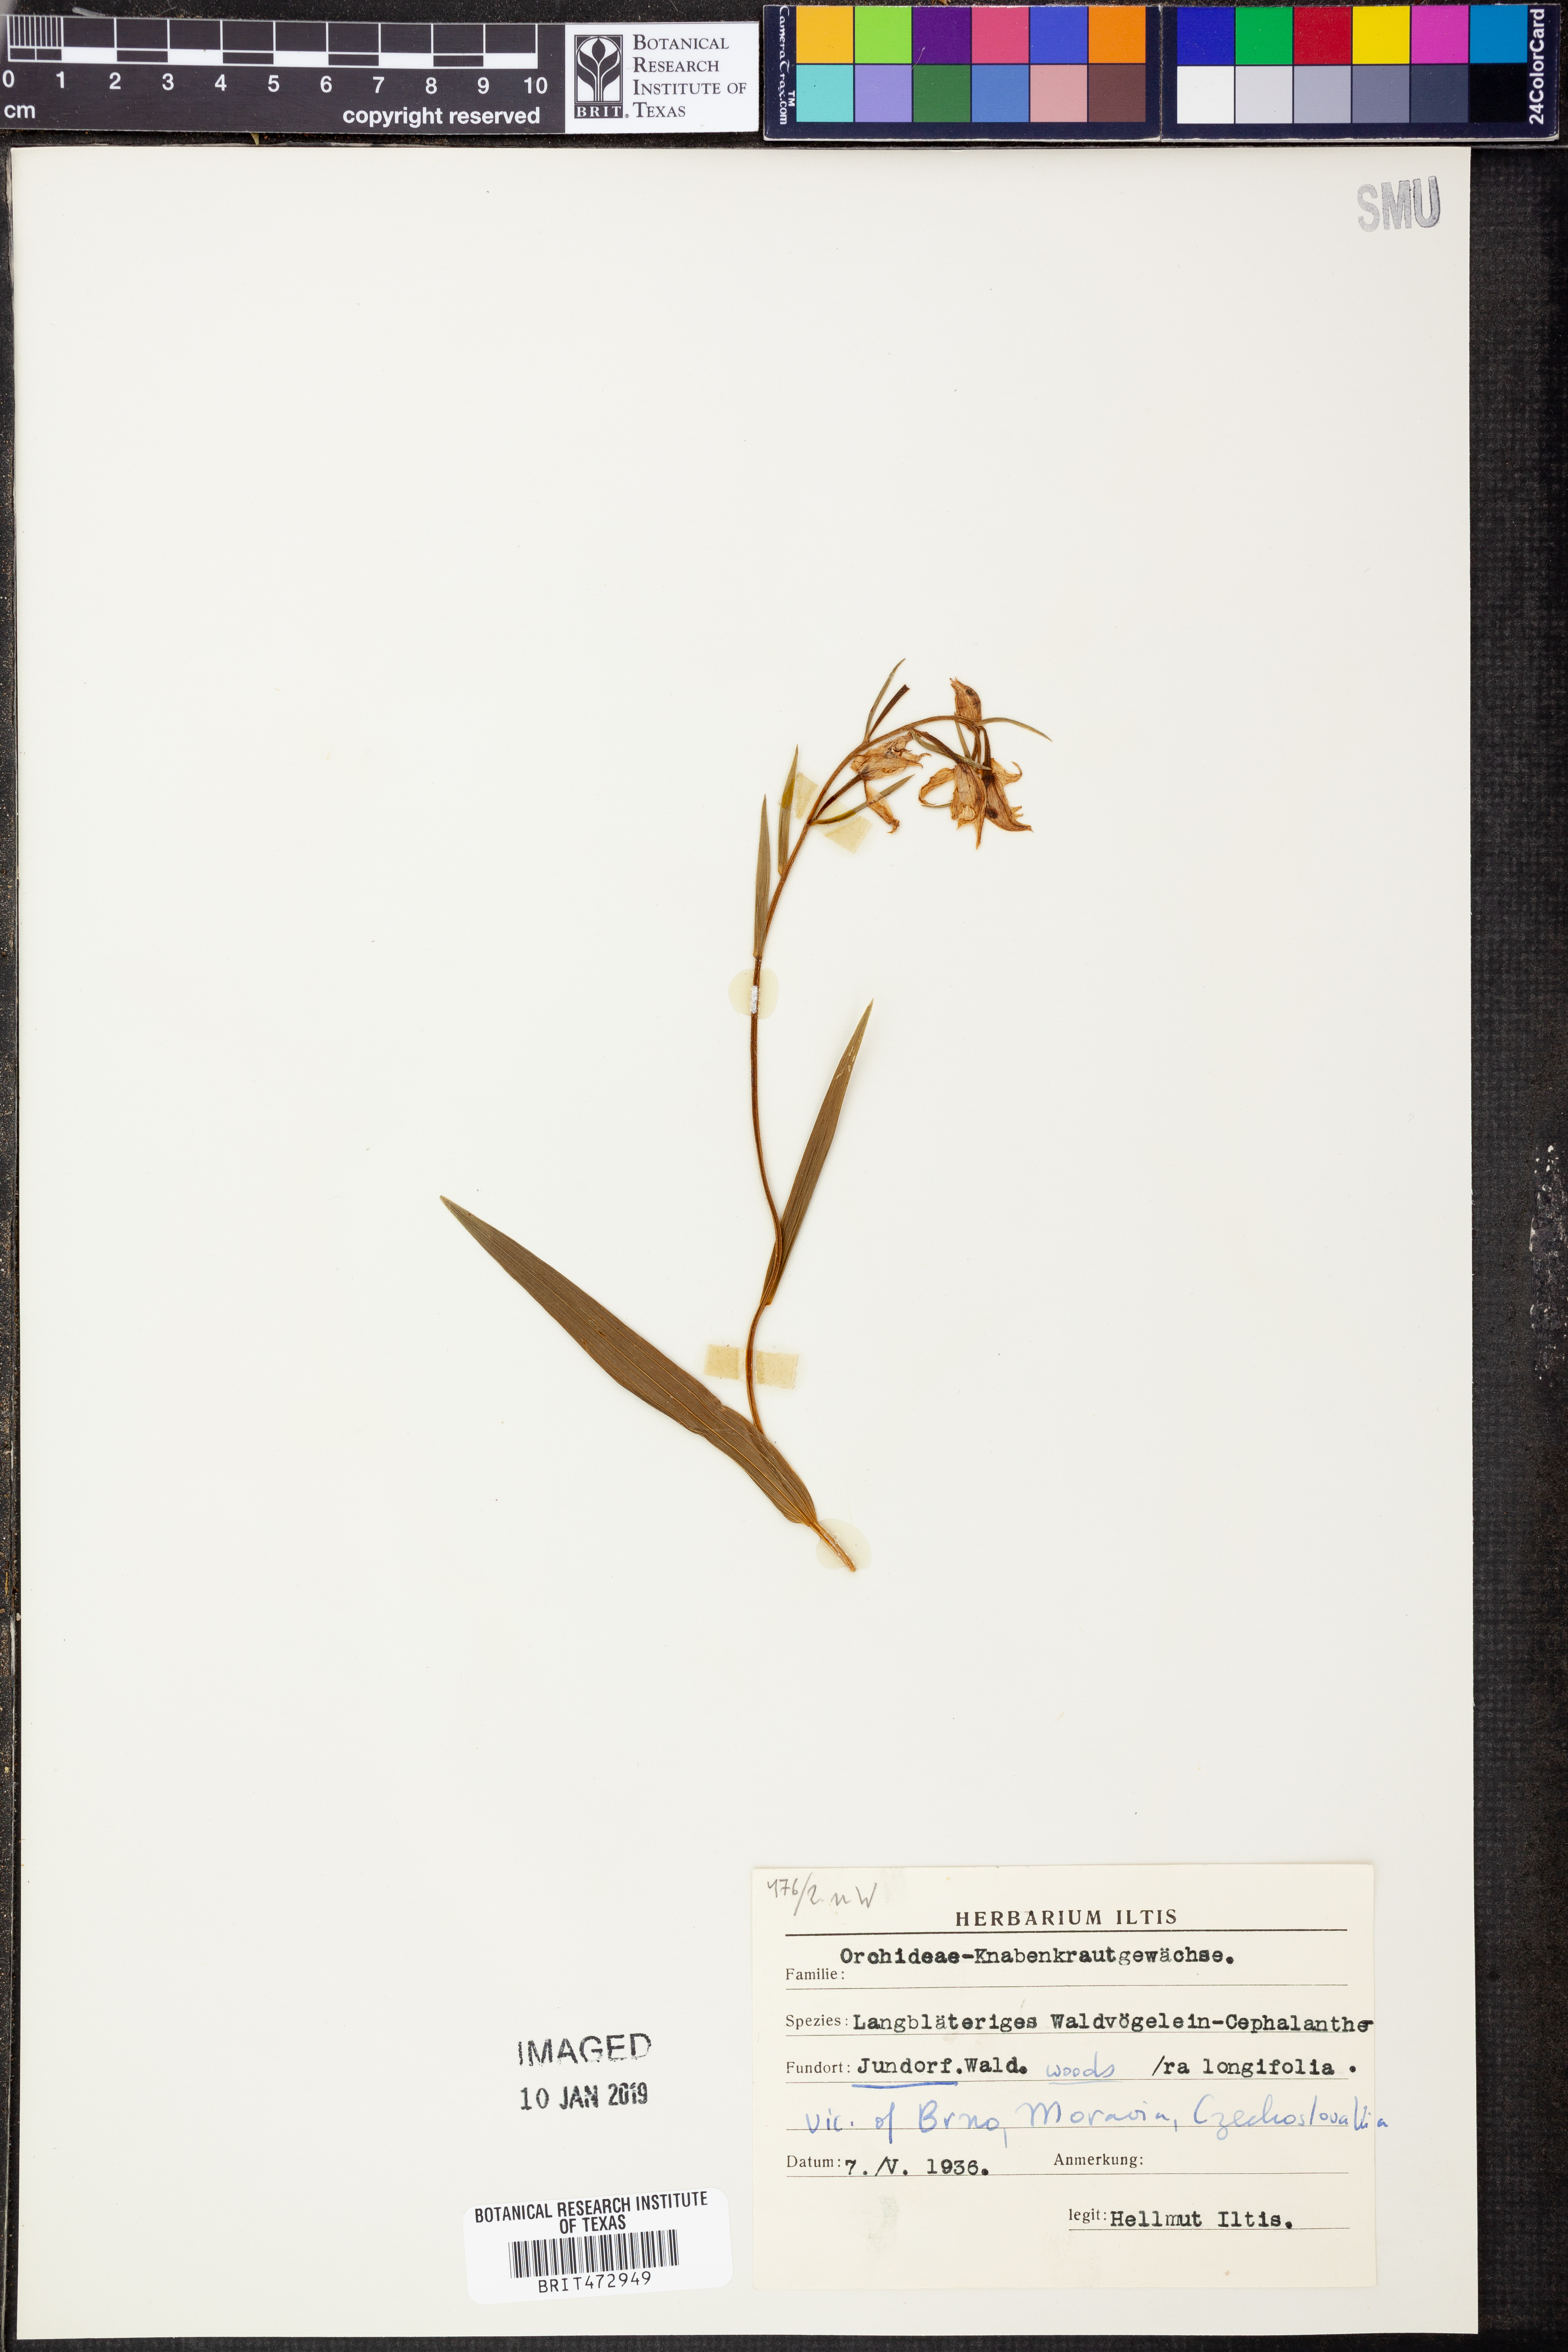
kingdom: Plantae
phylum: Tracheophyta
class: Liliopsida
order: Asparagales
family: Orchidaceae
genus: Cephalanthera
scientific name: Cephalanthera longifolia
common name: Narrow-leaved helleborine
